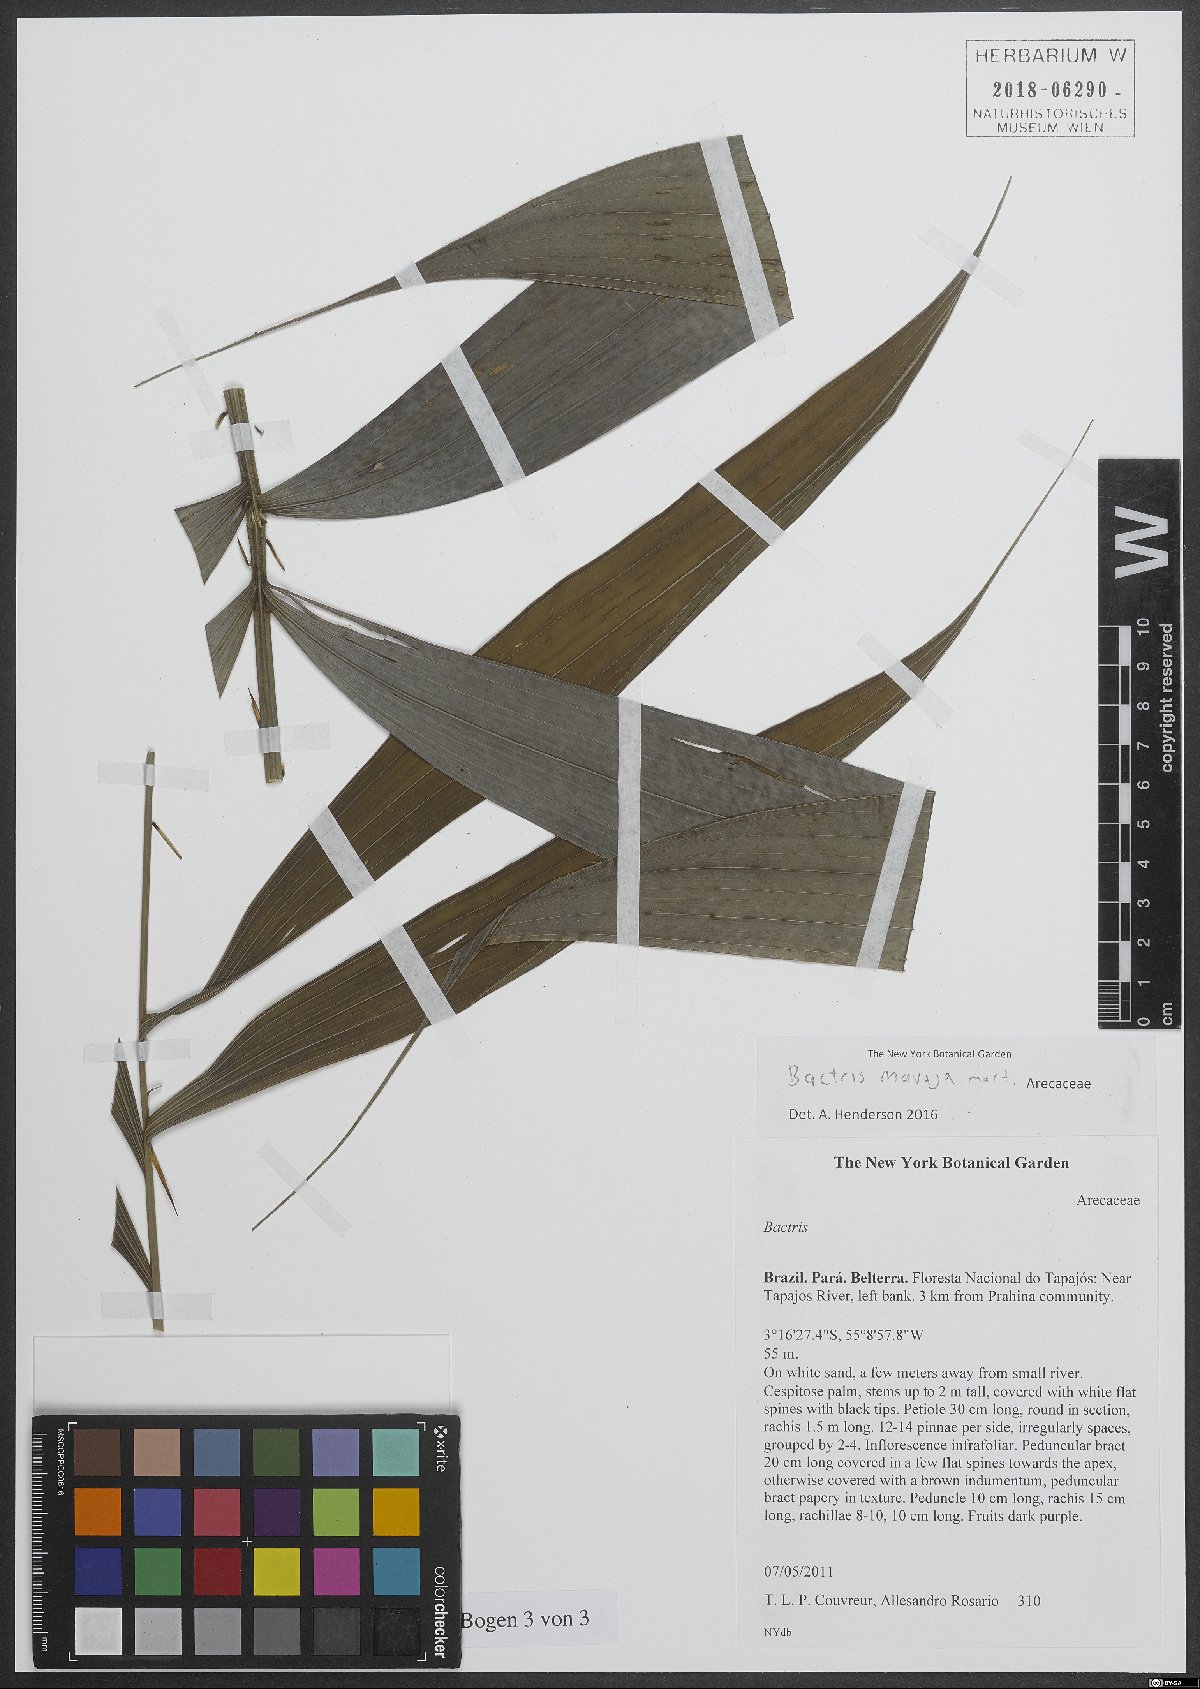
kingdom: Plantae
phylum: Tracheophyta
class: Liliopsida
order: Arecales
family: Arecaceae
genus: Bactris
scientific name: Bactris maraja
